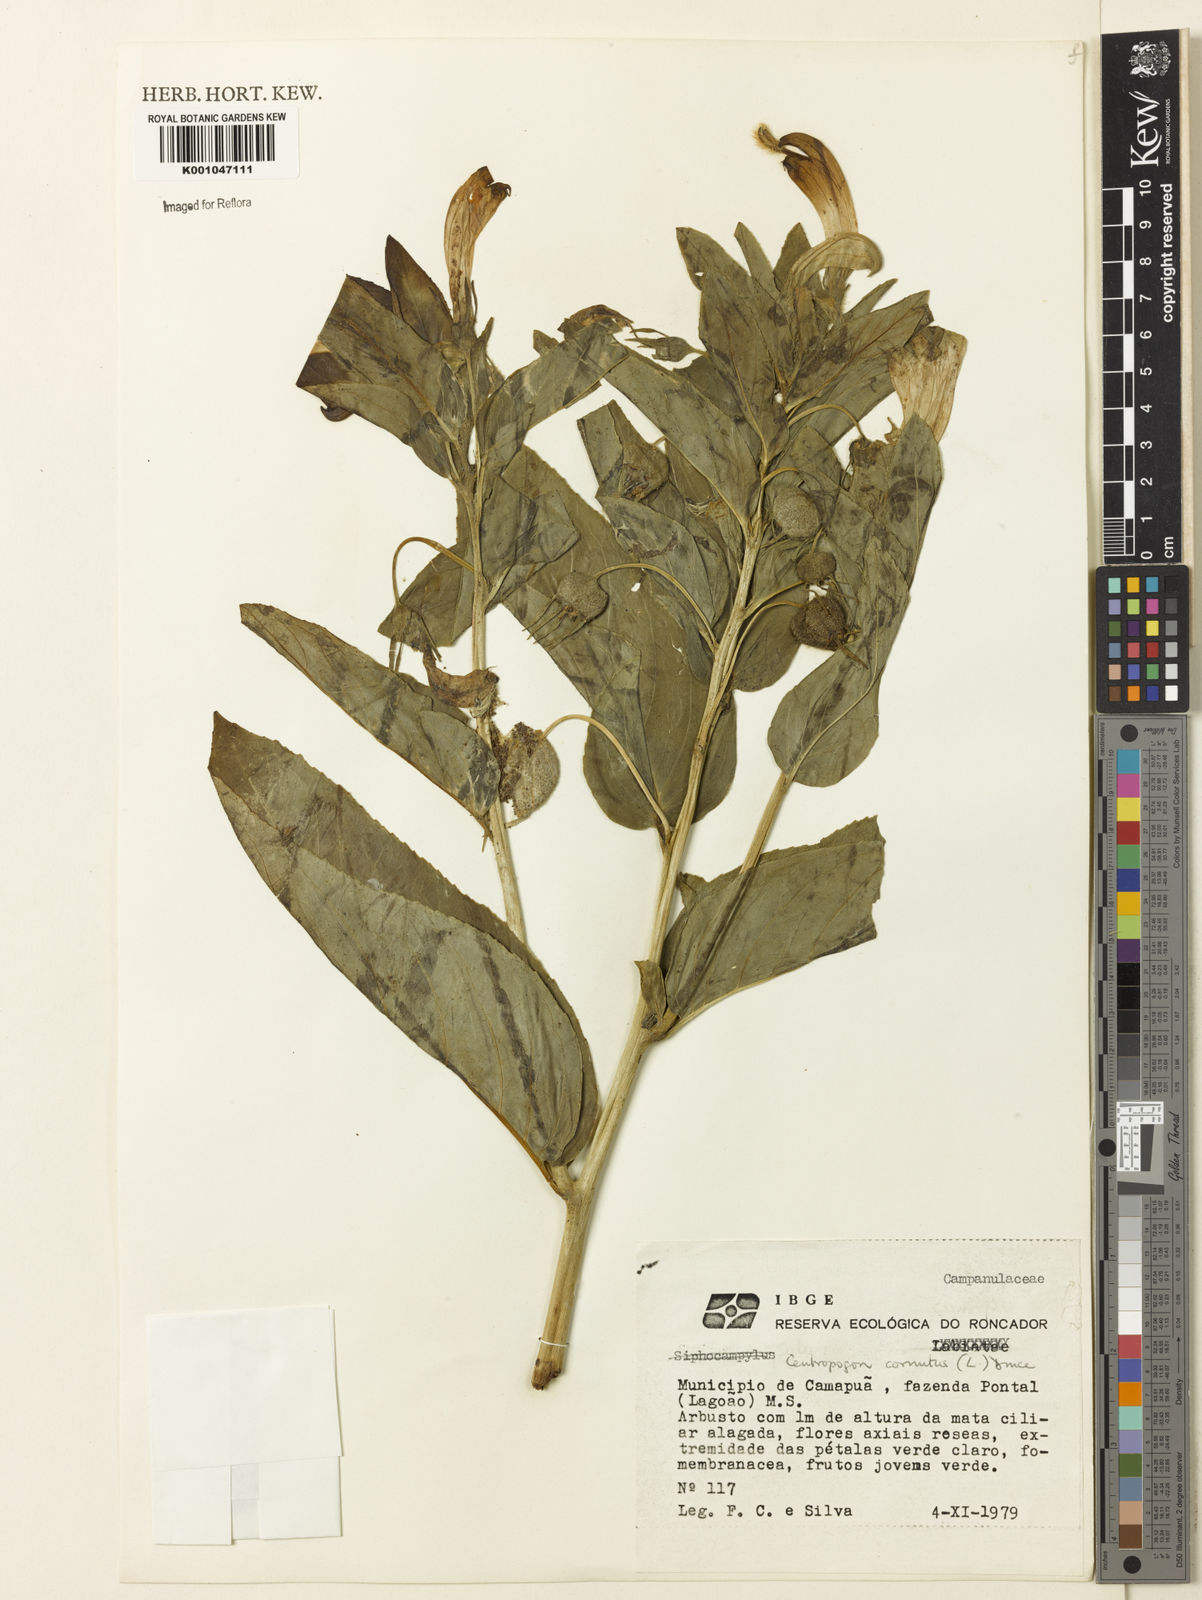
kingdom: Plantae
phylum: Tracheophyta
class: Magnoliopsida
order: Asterales
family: Campanulaceae
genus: Centropogon
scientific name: Centropogon cornutus
